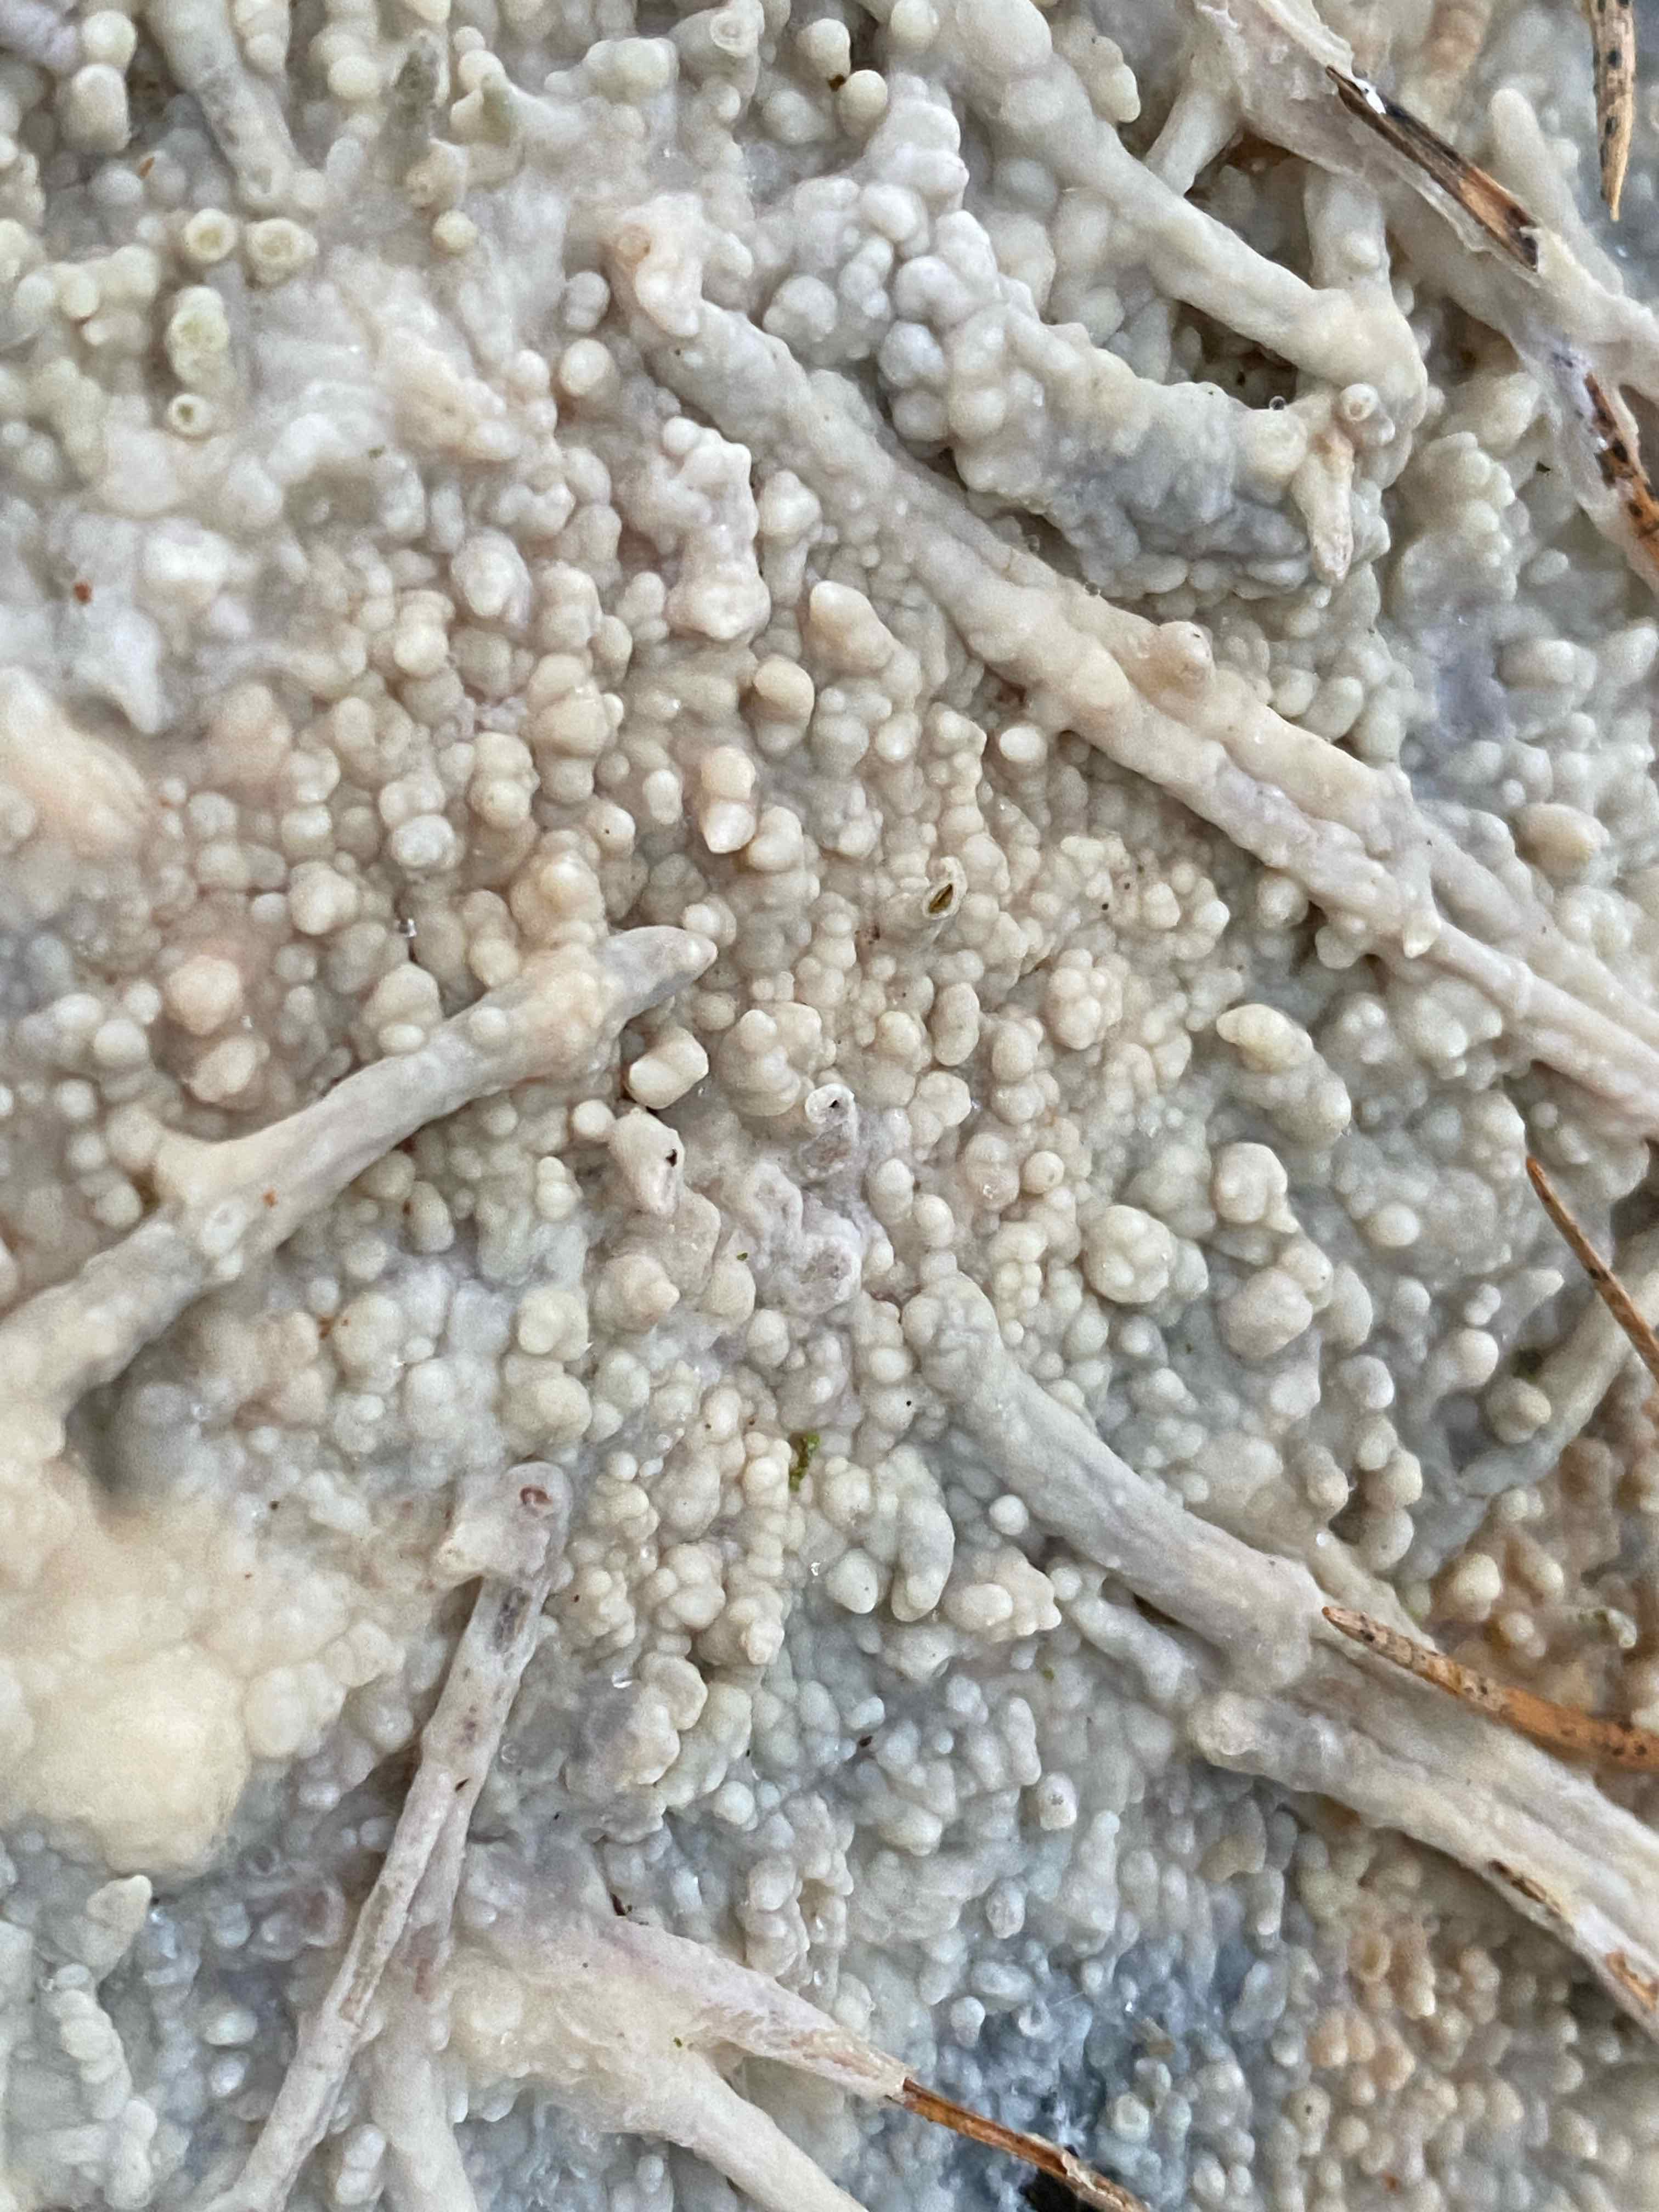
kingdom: Fungi
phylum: Basidiomycota
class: Agaricomycetes
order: Polyporales
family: Phanerochaetaceae
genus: Phlebiopsis
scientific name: Phlebiopsis gigantea
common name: kæmpebarksvamp
